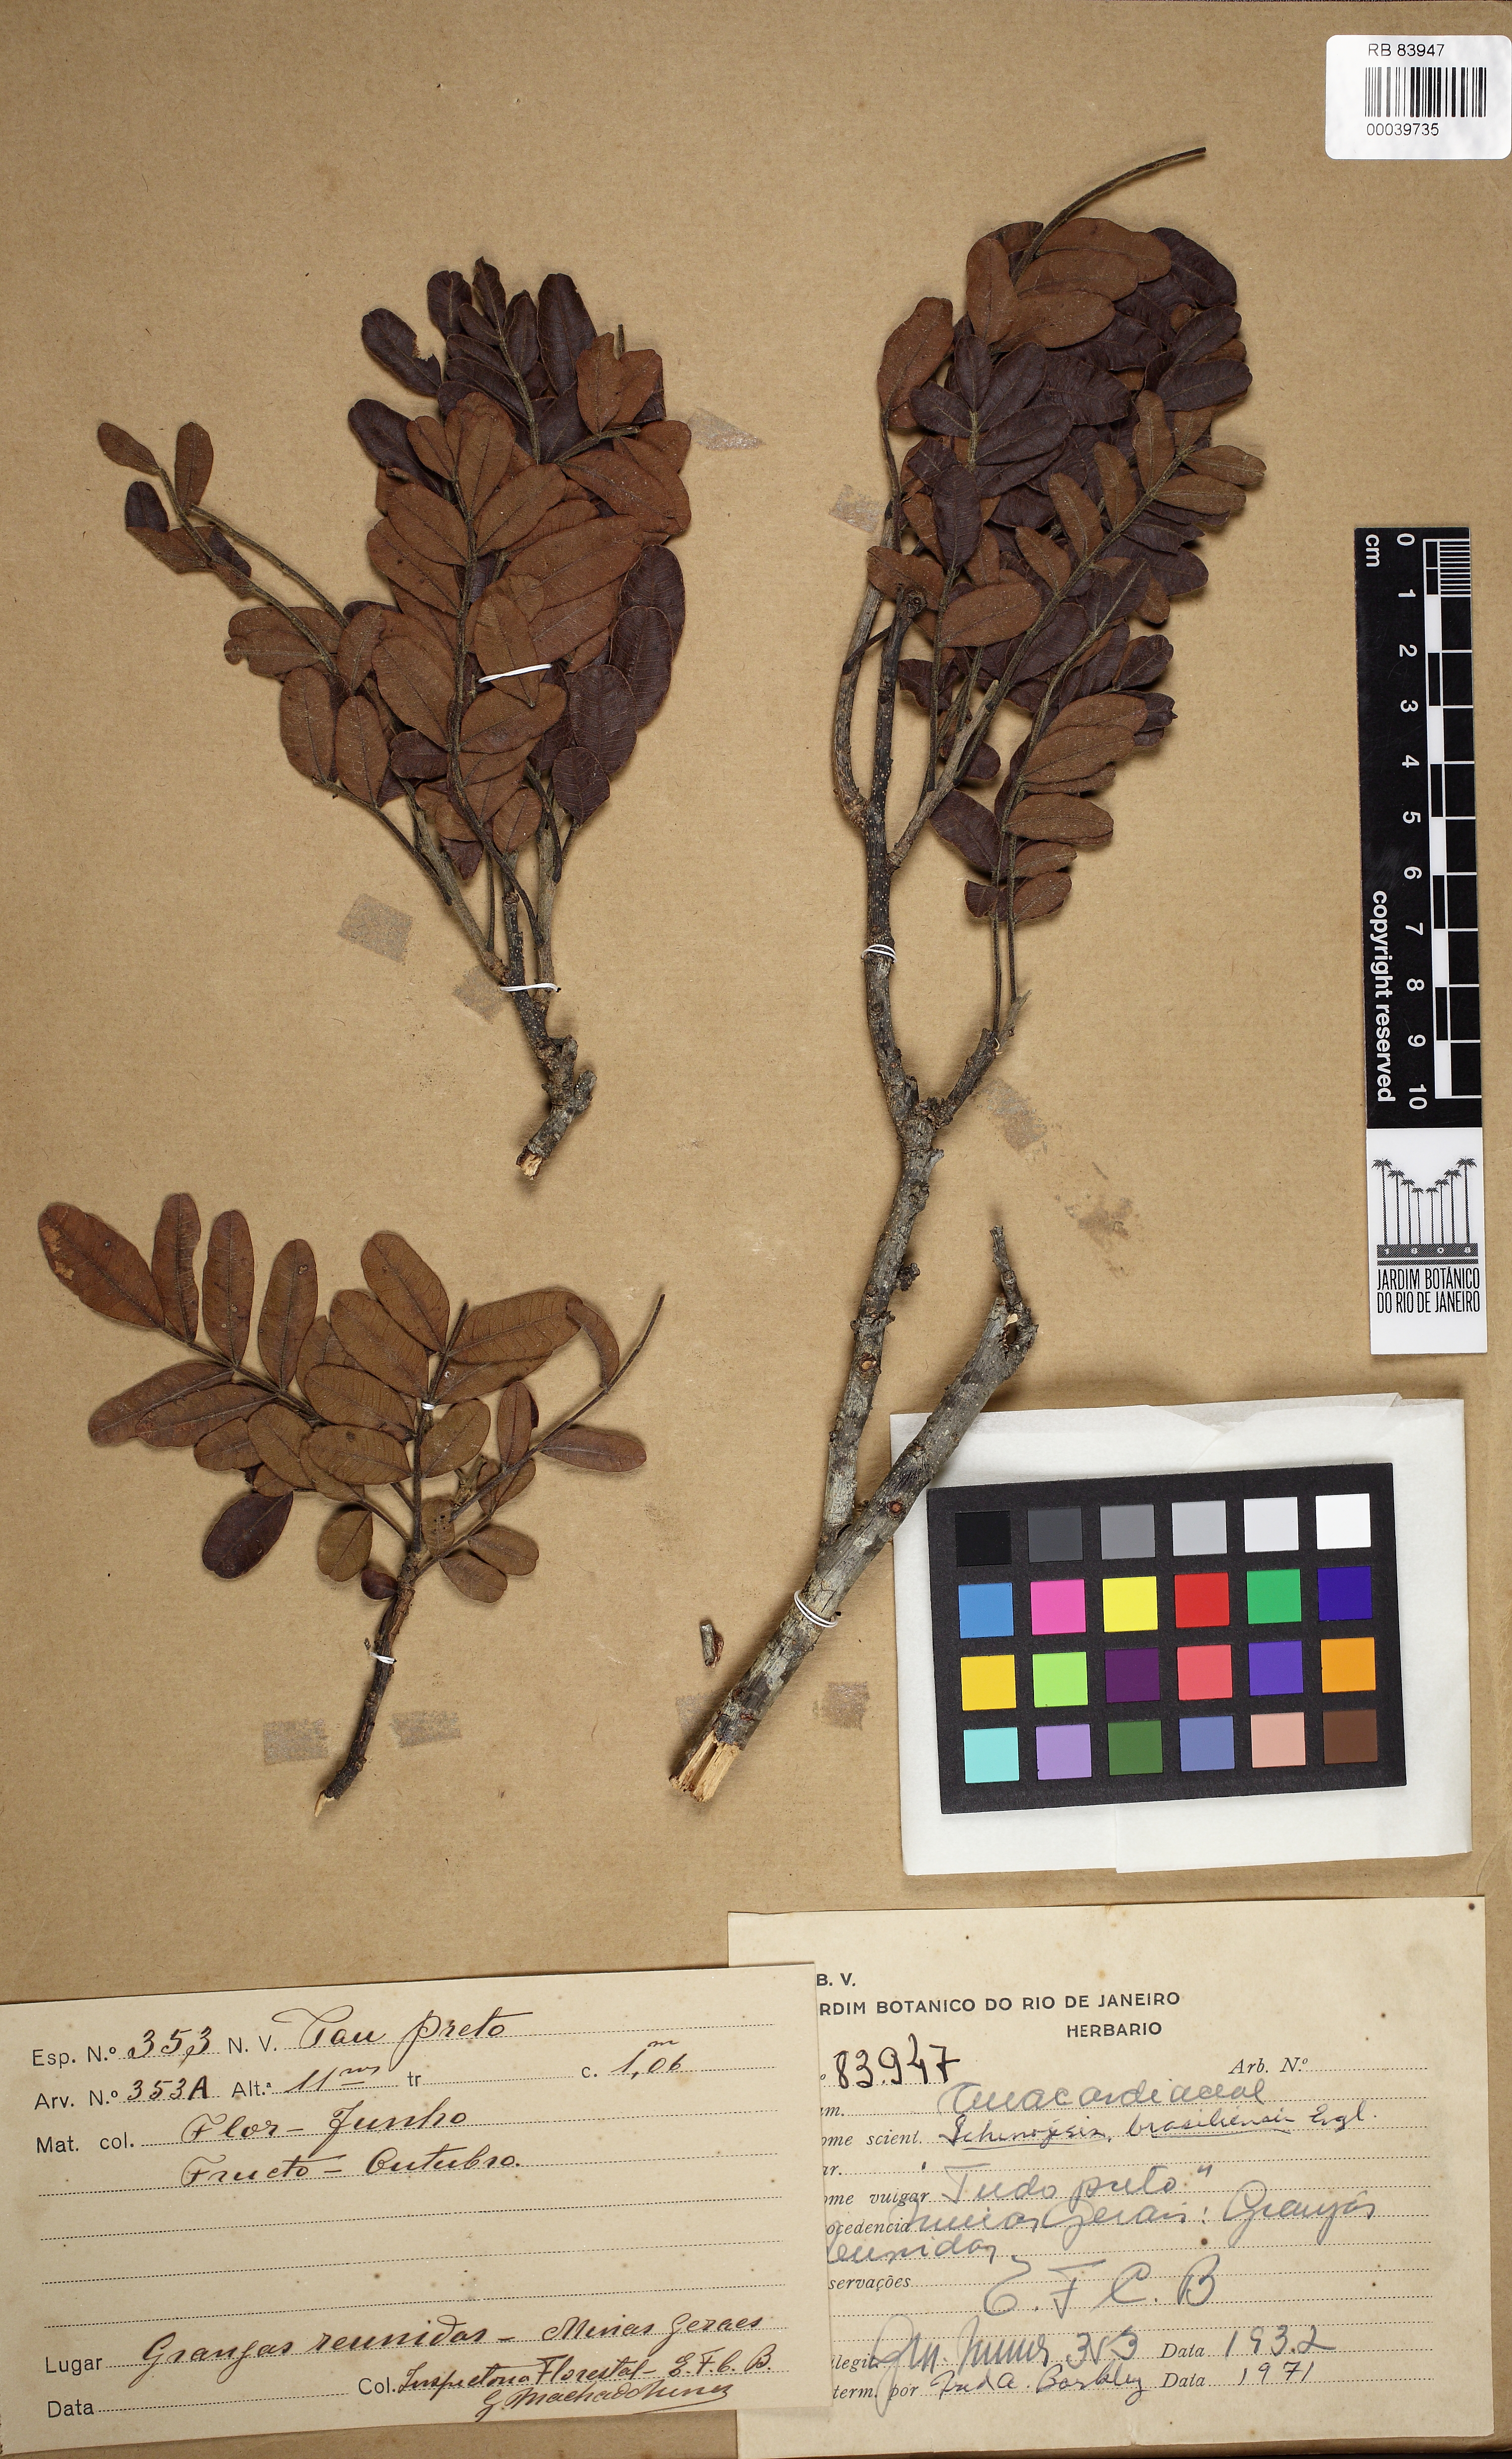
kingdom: Plantae
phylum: Tracheophyta
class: Magnoliopsida
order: Sapindales
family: Anacardiaceae
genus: Schinopsis
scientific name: Schinopsis brasiliensis
